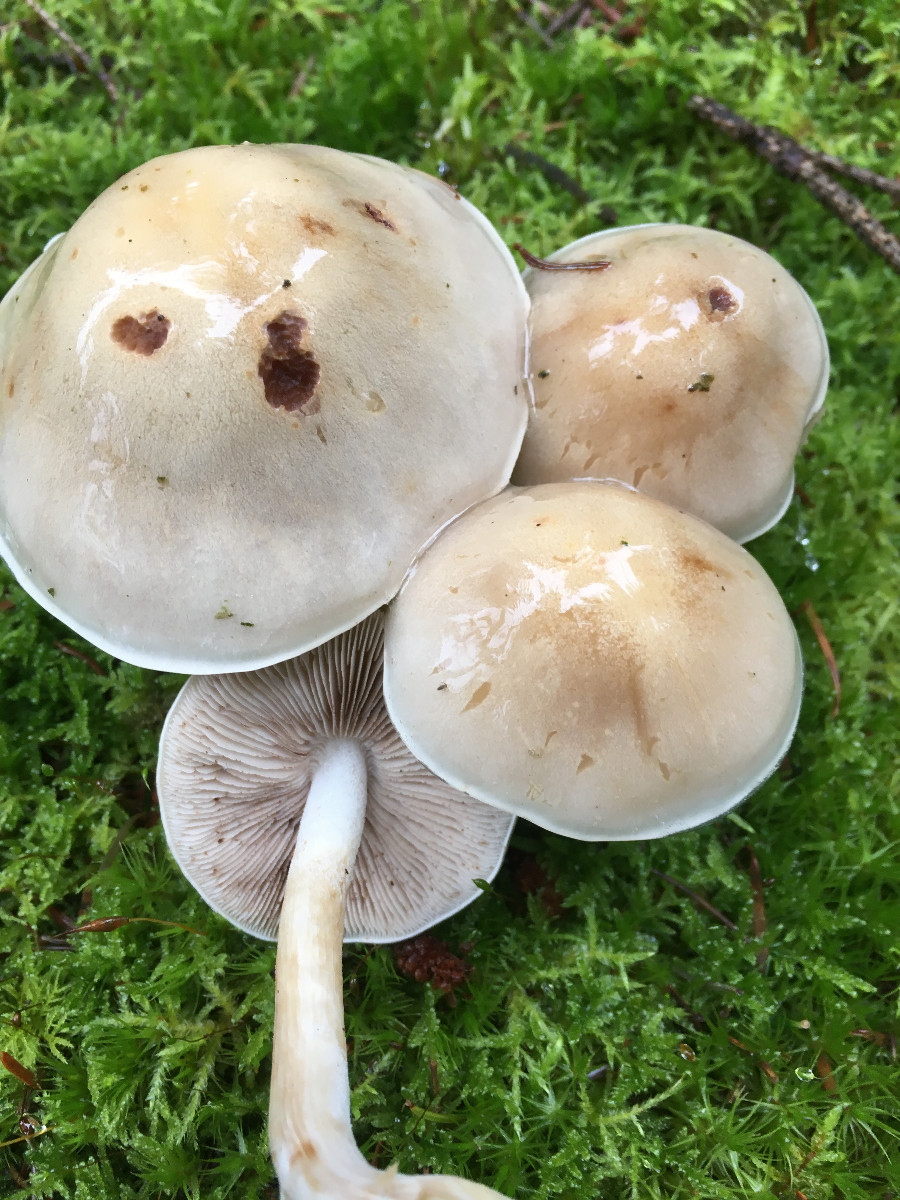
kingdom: Fungi
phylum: Basidiomycota
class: Agaricomycetes
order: Agaricales
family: Hymenogastraceae
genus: Hebeloma
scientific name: Hebeloma
